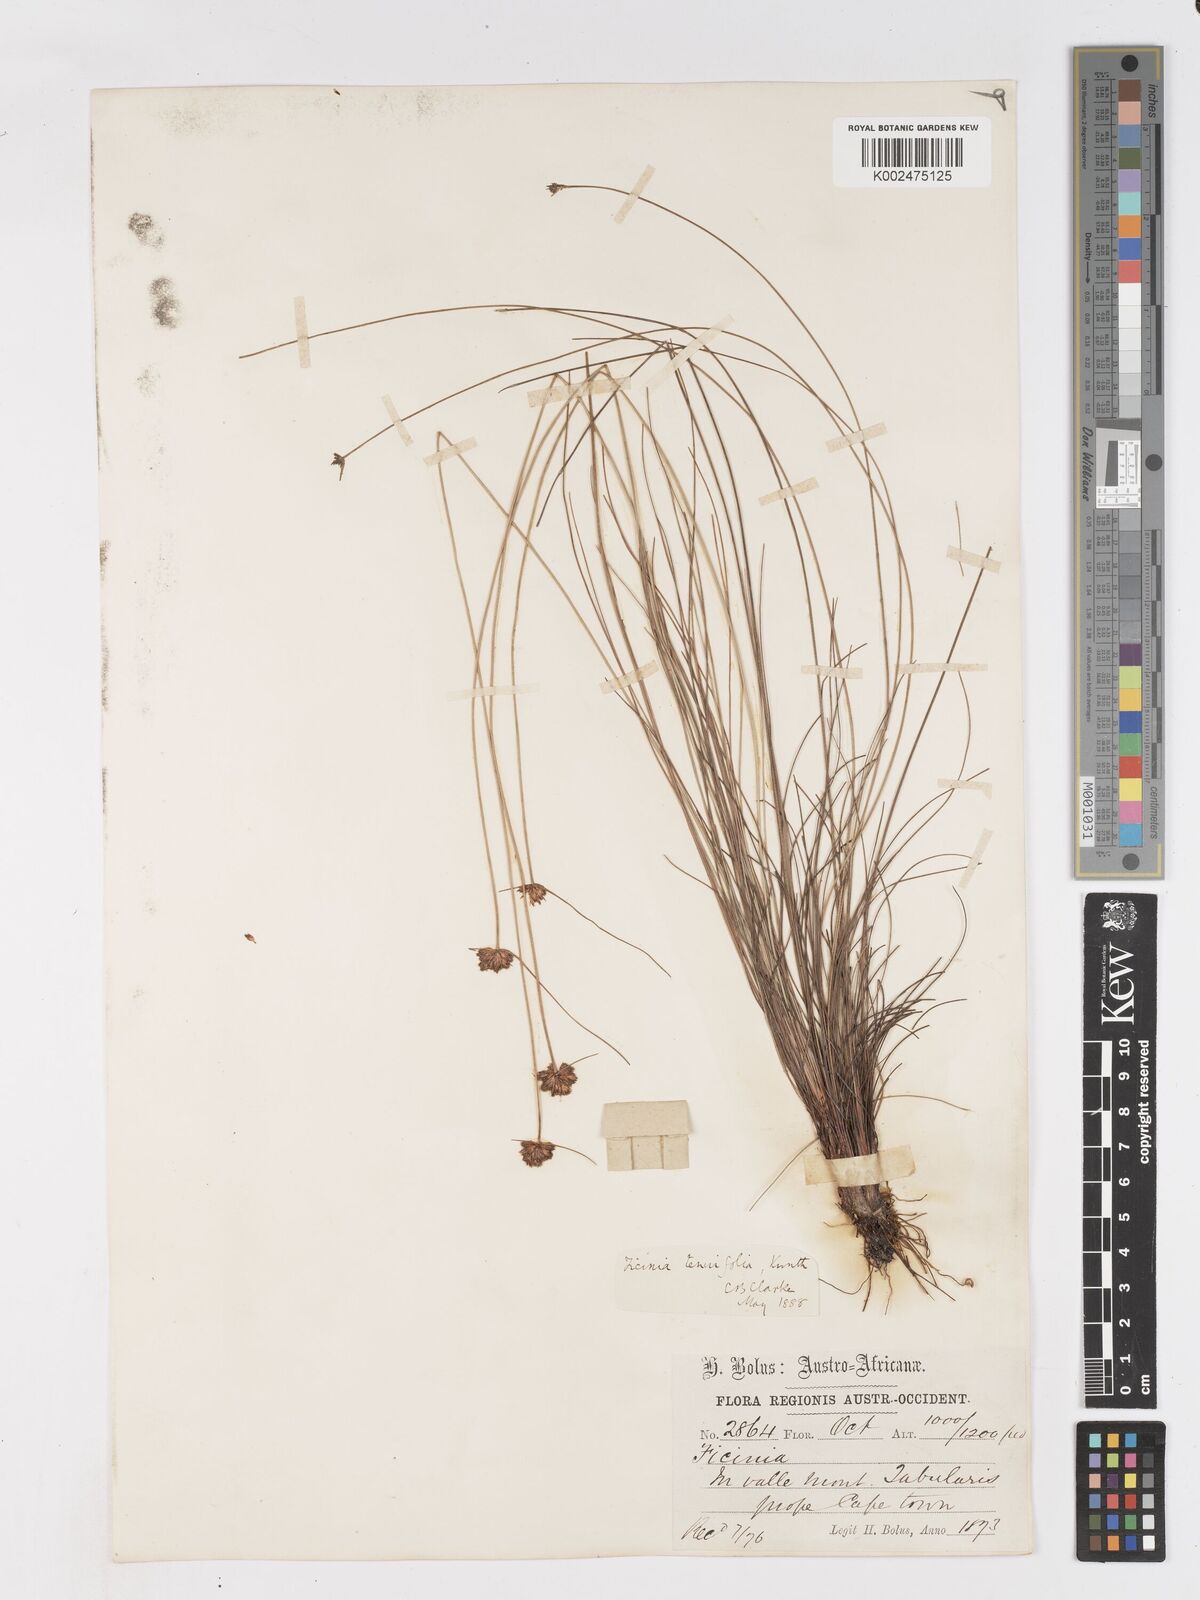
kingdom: Plantae
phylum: Tracheophyta
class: Liliopsida
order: Poales
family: Cyperaceae
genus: Ficinia
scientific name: Ficinia filiformis
